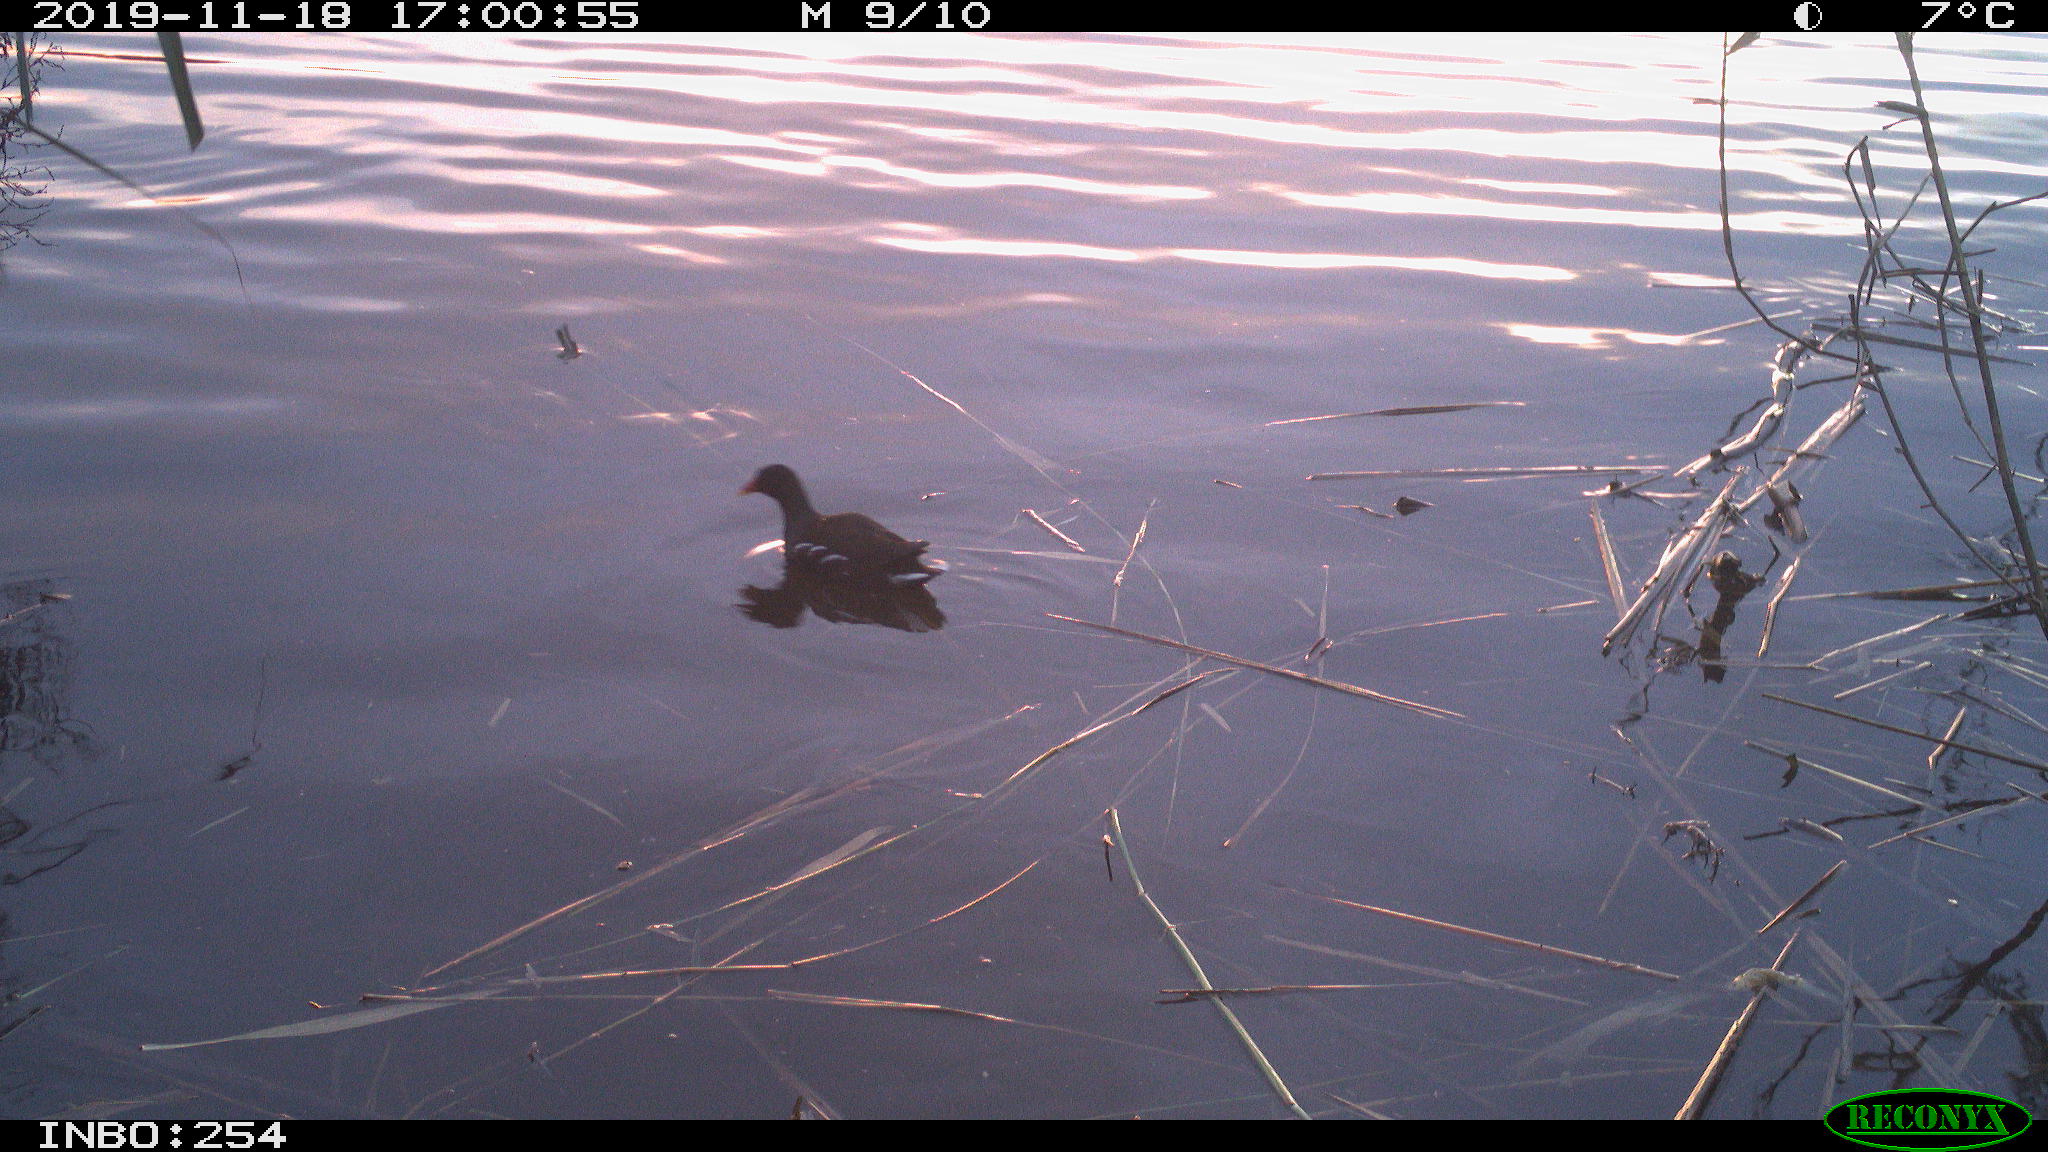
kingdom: Animalia
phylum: Chordata
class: Aves
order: Gruiformes
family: Rallidae
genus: Gallinula
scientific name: Gallinula chloropus
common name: Common moorhen
